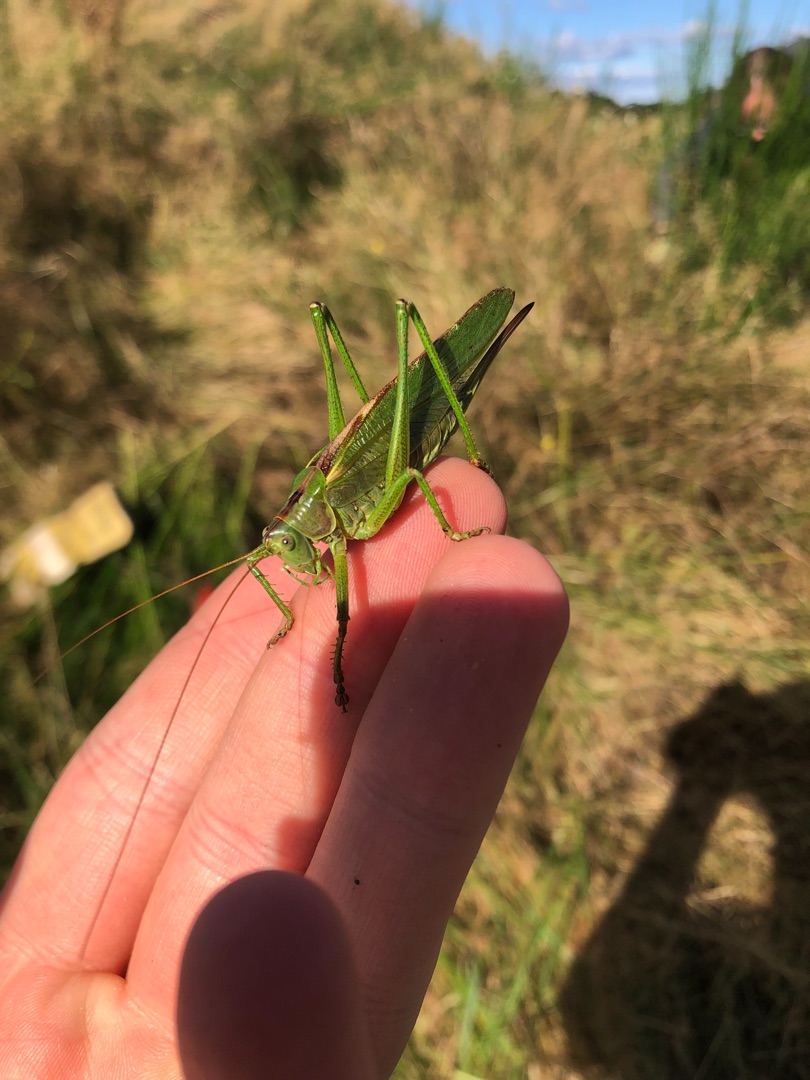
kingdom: Animalia
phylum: Arthropoda
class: Insecta
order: Orthoptera
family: Tettigoniidae
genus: Tettigonia
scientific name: Tettigonia viridissima
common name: Stor grøn løvgræshoppe
